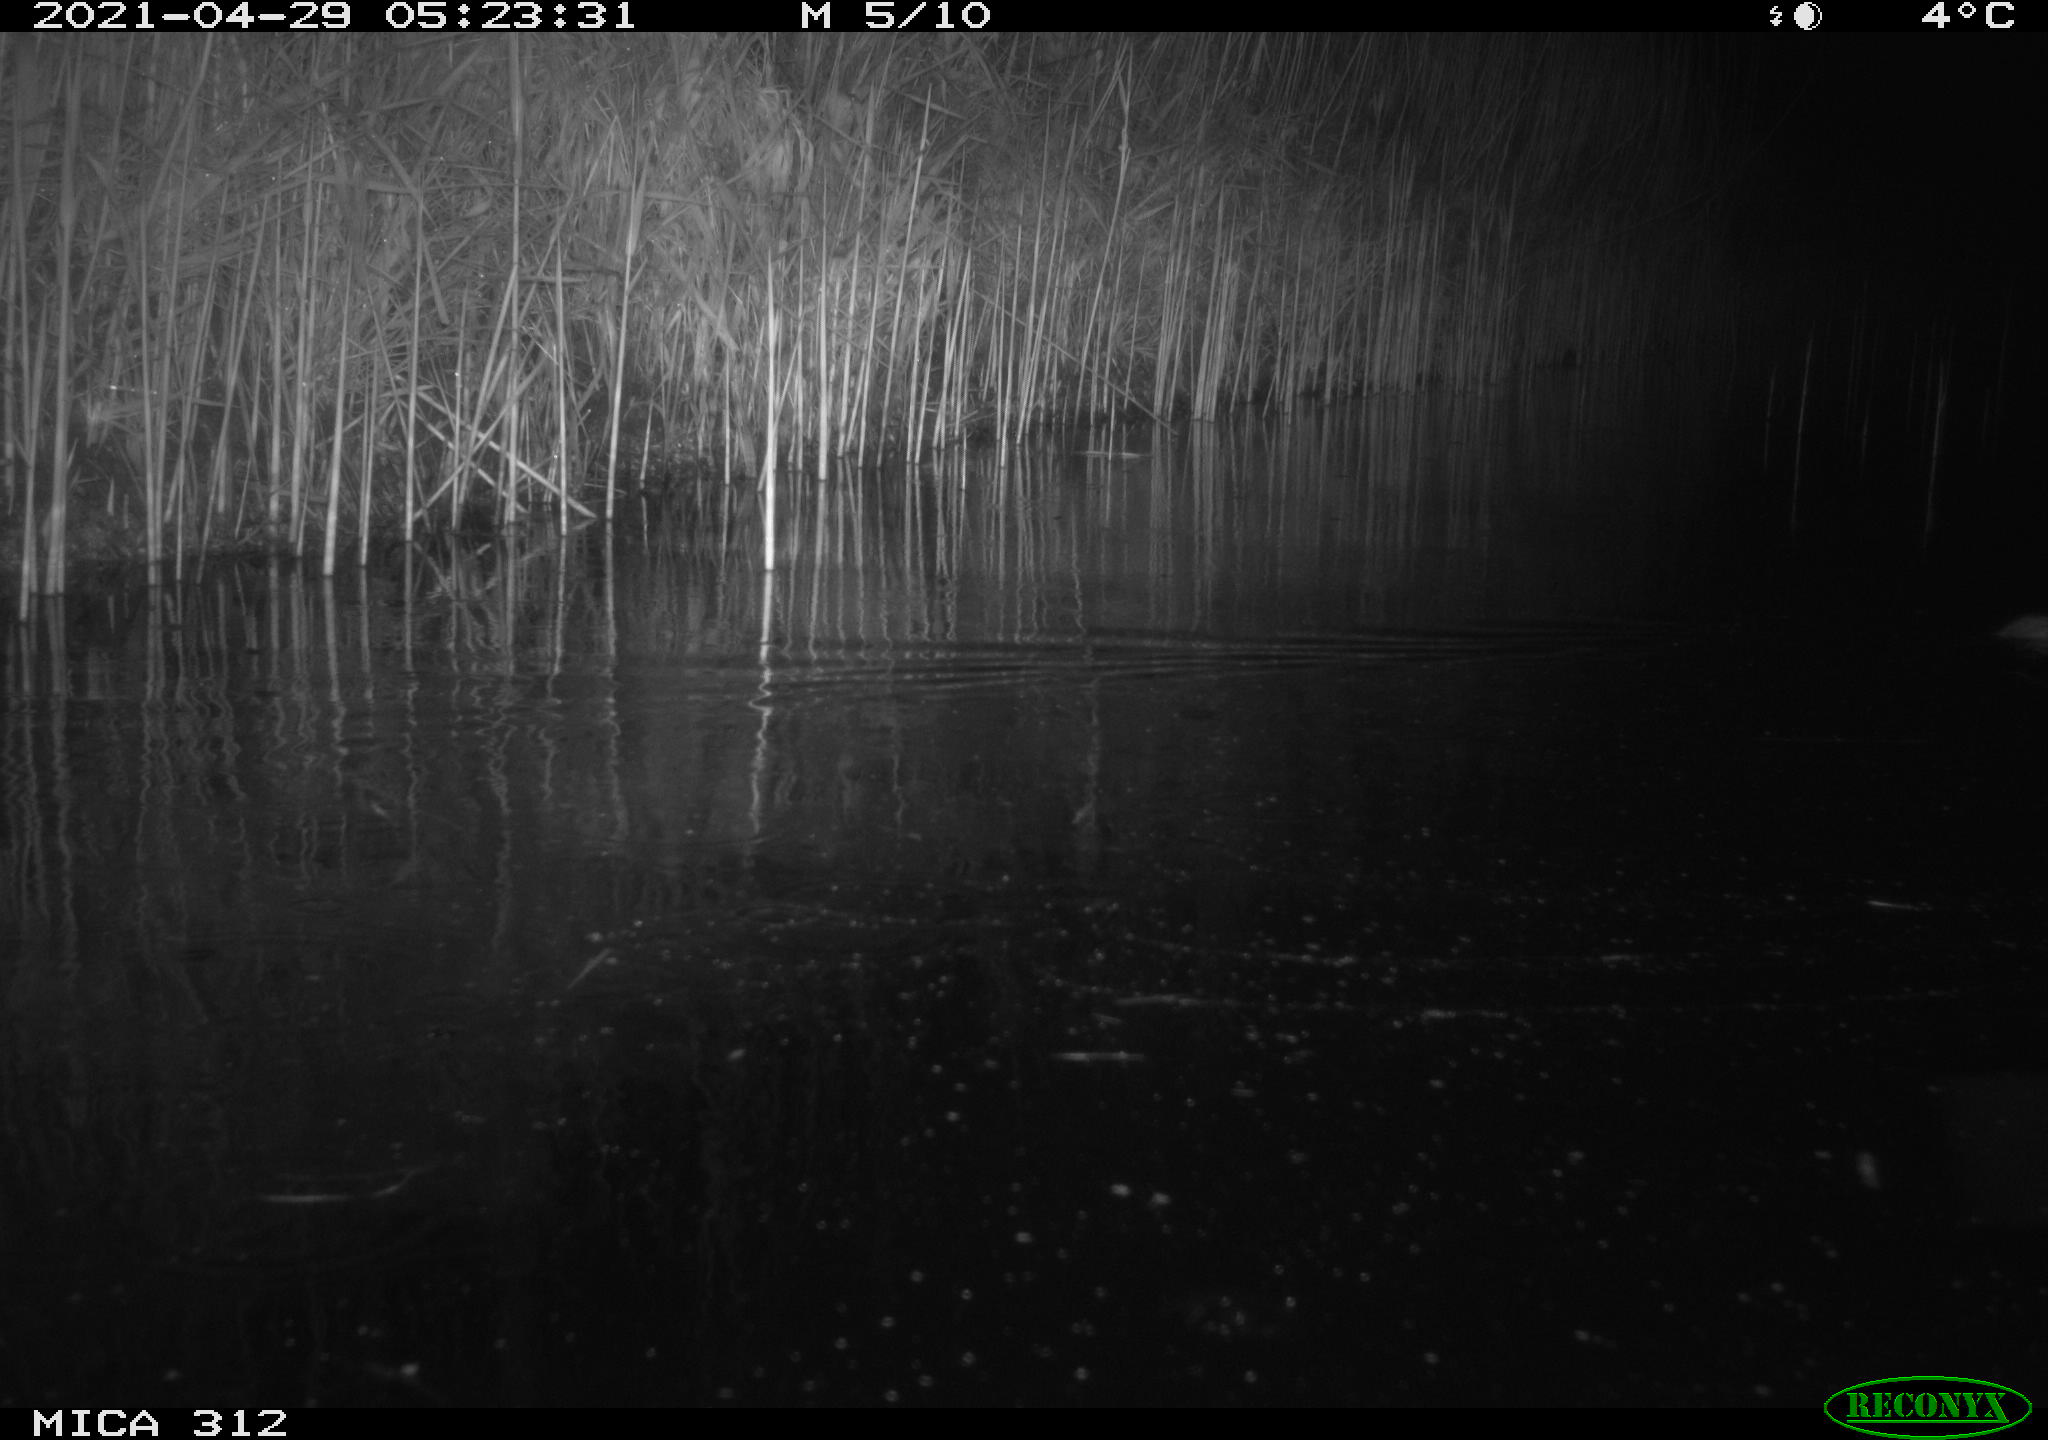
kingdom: Animalia
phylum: Chordata
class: Mammalia
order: Rodentia
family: Cricetidae
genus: Ondatra
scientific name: Ondatra zibethicus
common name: Muskrat
